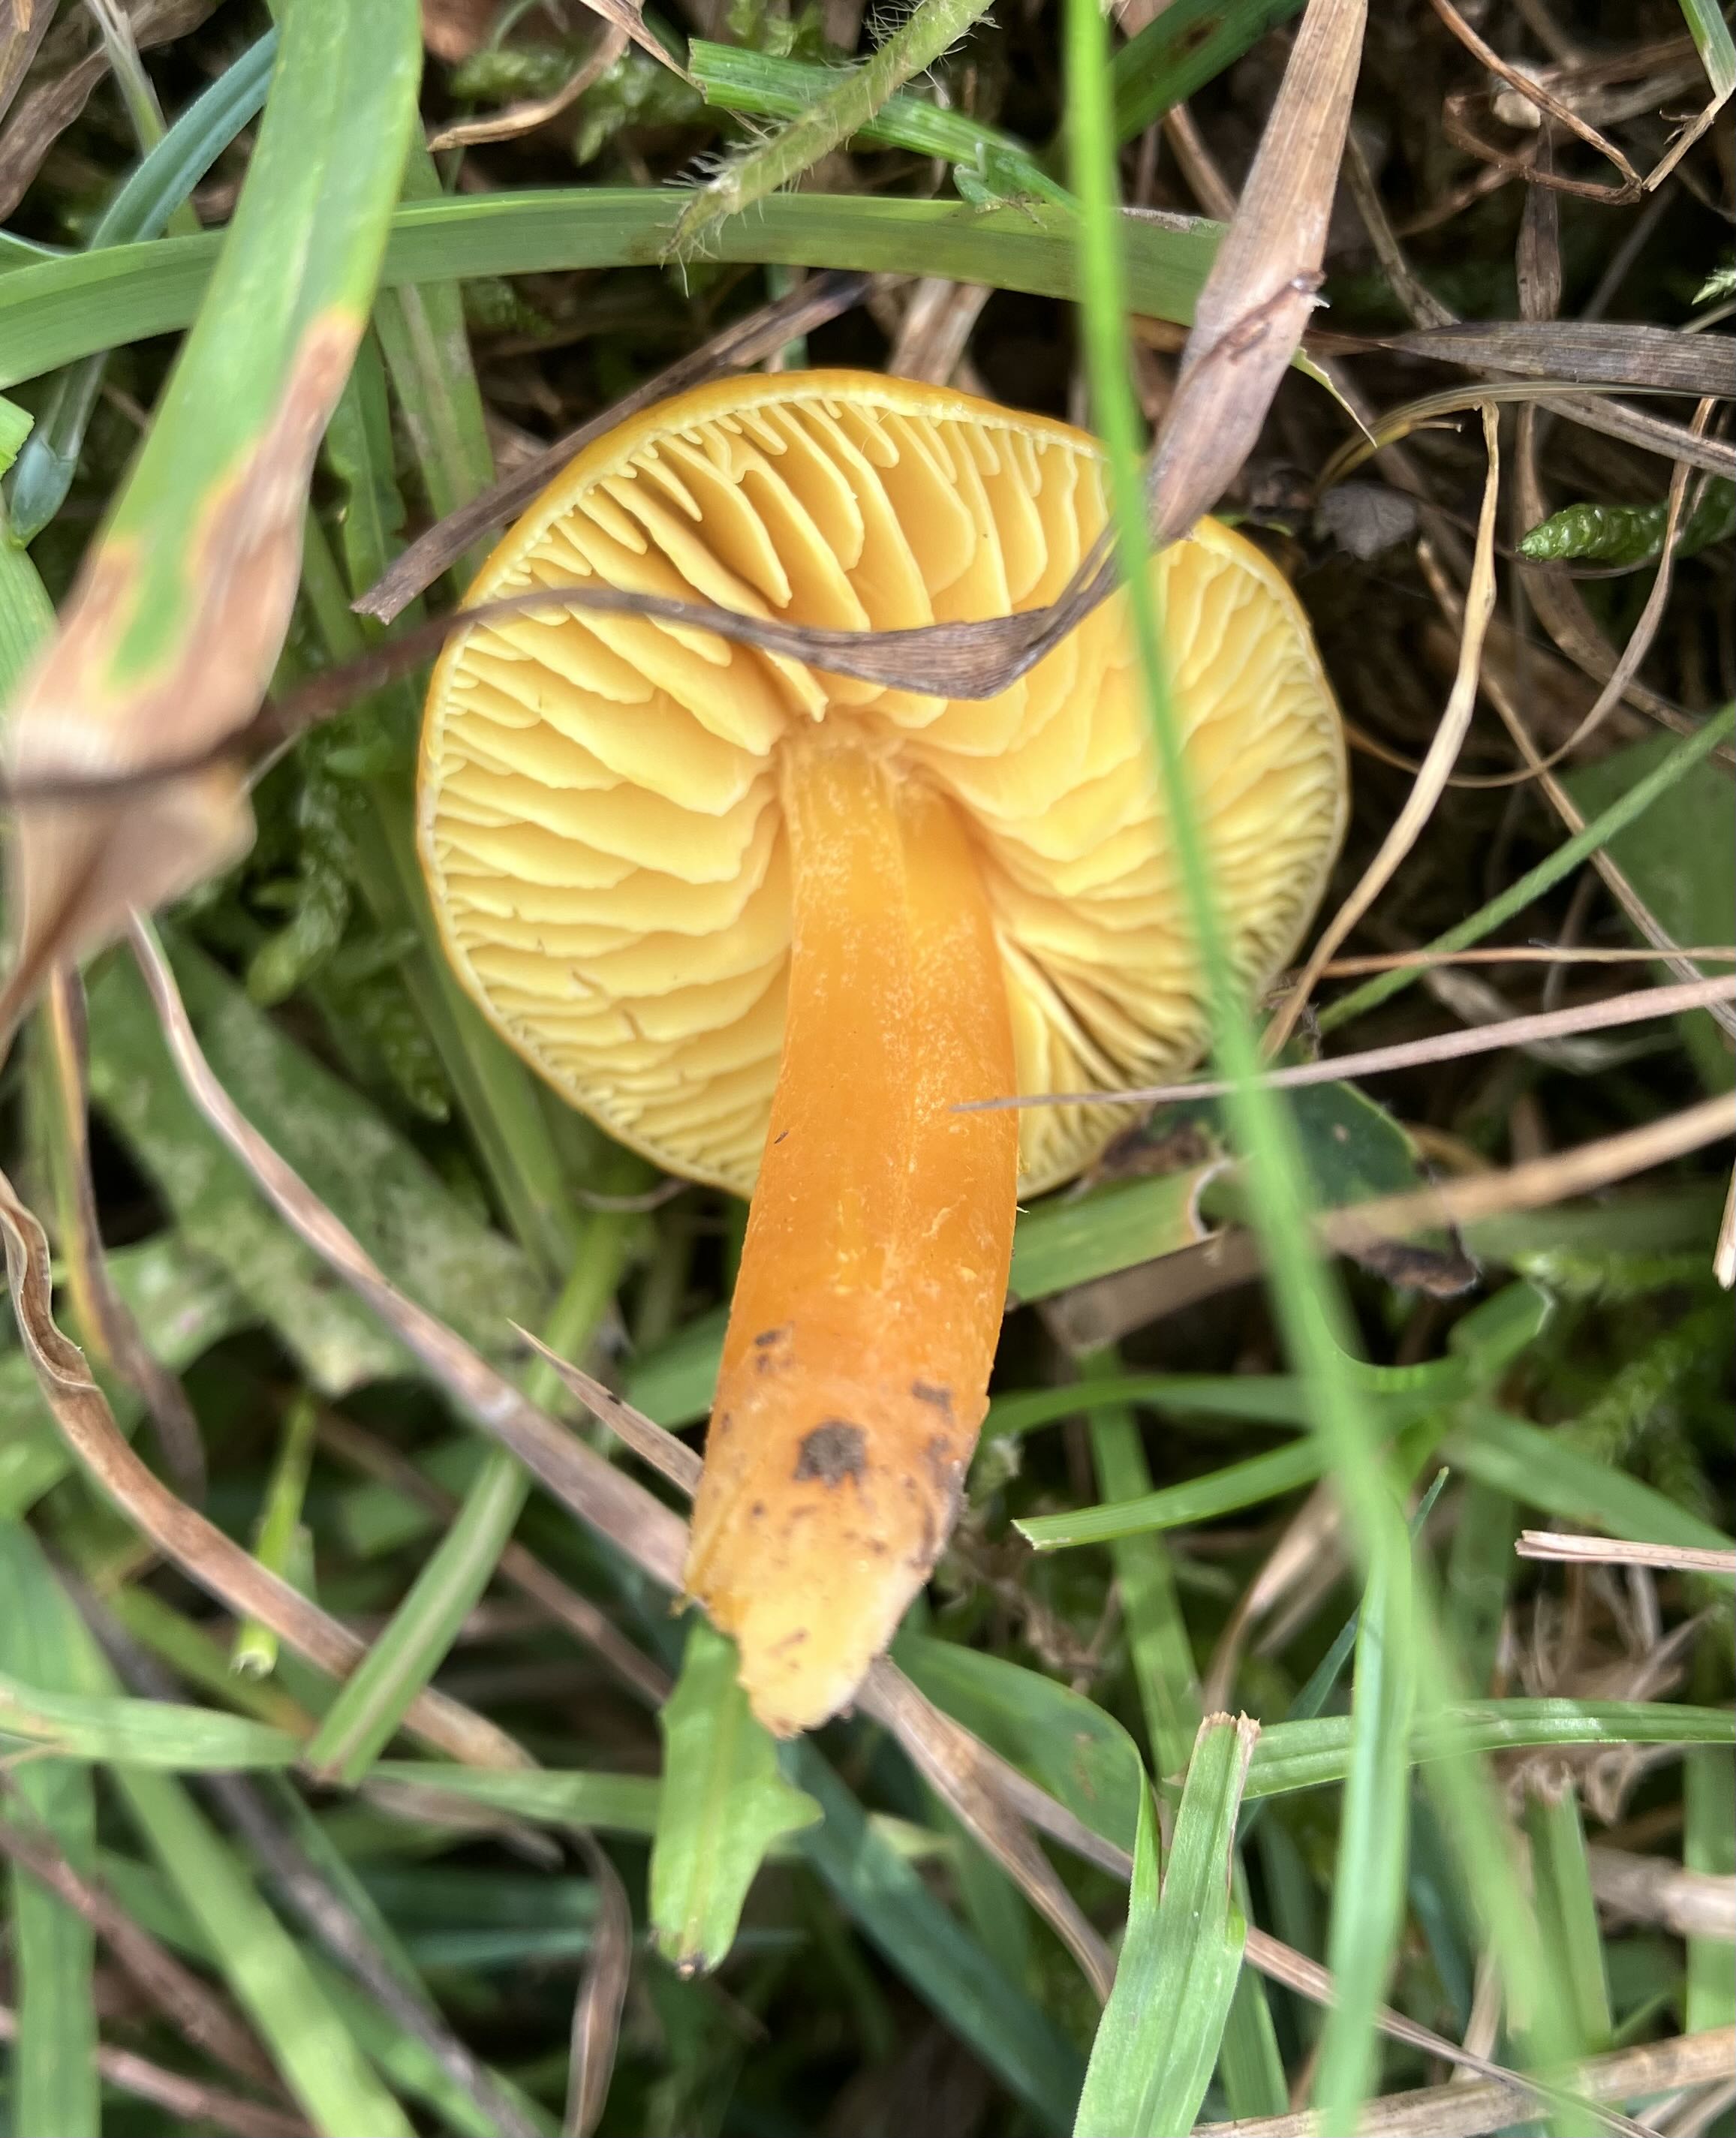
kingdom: Fungi
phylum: Basidiomycota
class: Agaricomycetes
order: Agaricales
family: Hygrophoraceae
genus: Hygrocybe
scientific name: Hygrocybe chlorophana
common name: gul vokshat
